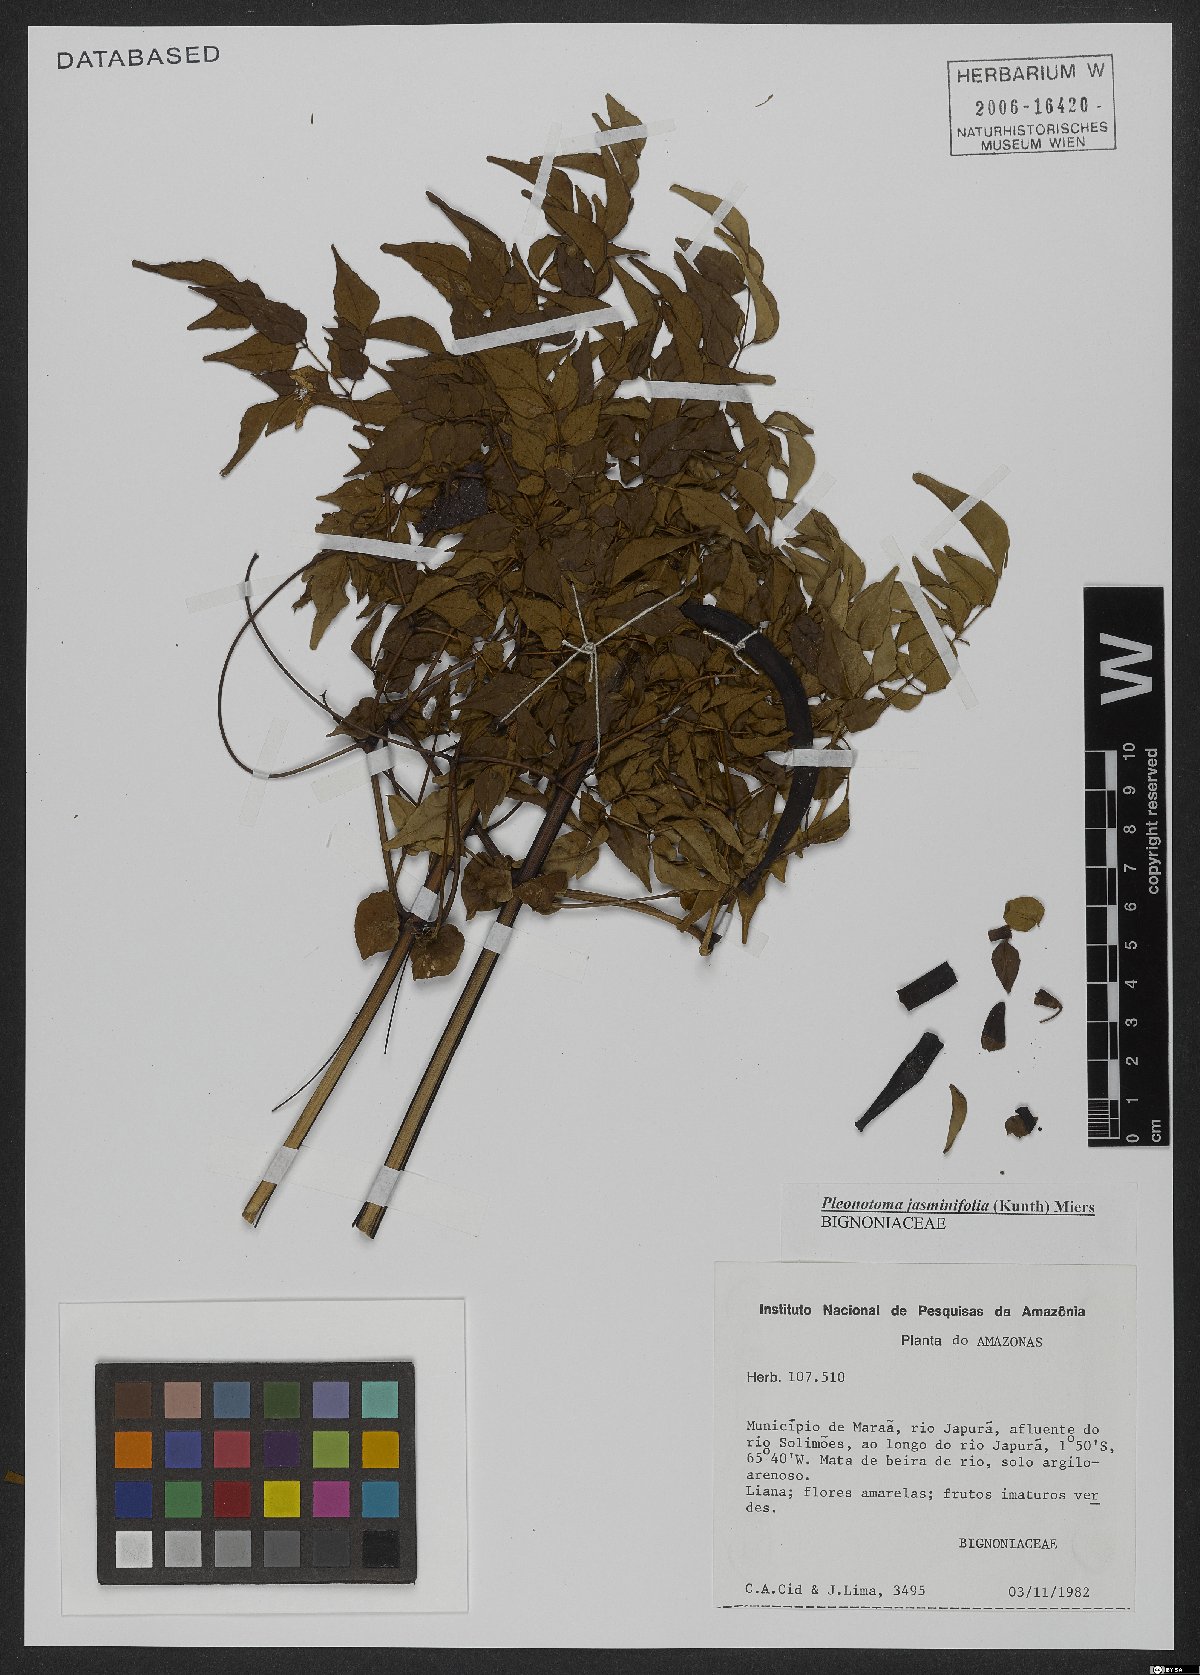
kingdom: Plantae
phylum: Tracheophyta
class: Magnoliopsida
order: Lamiales
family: Bignoniaceae
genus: Pleonotoma
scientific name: Pleonotoma jasminifolia
